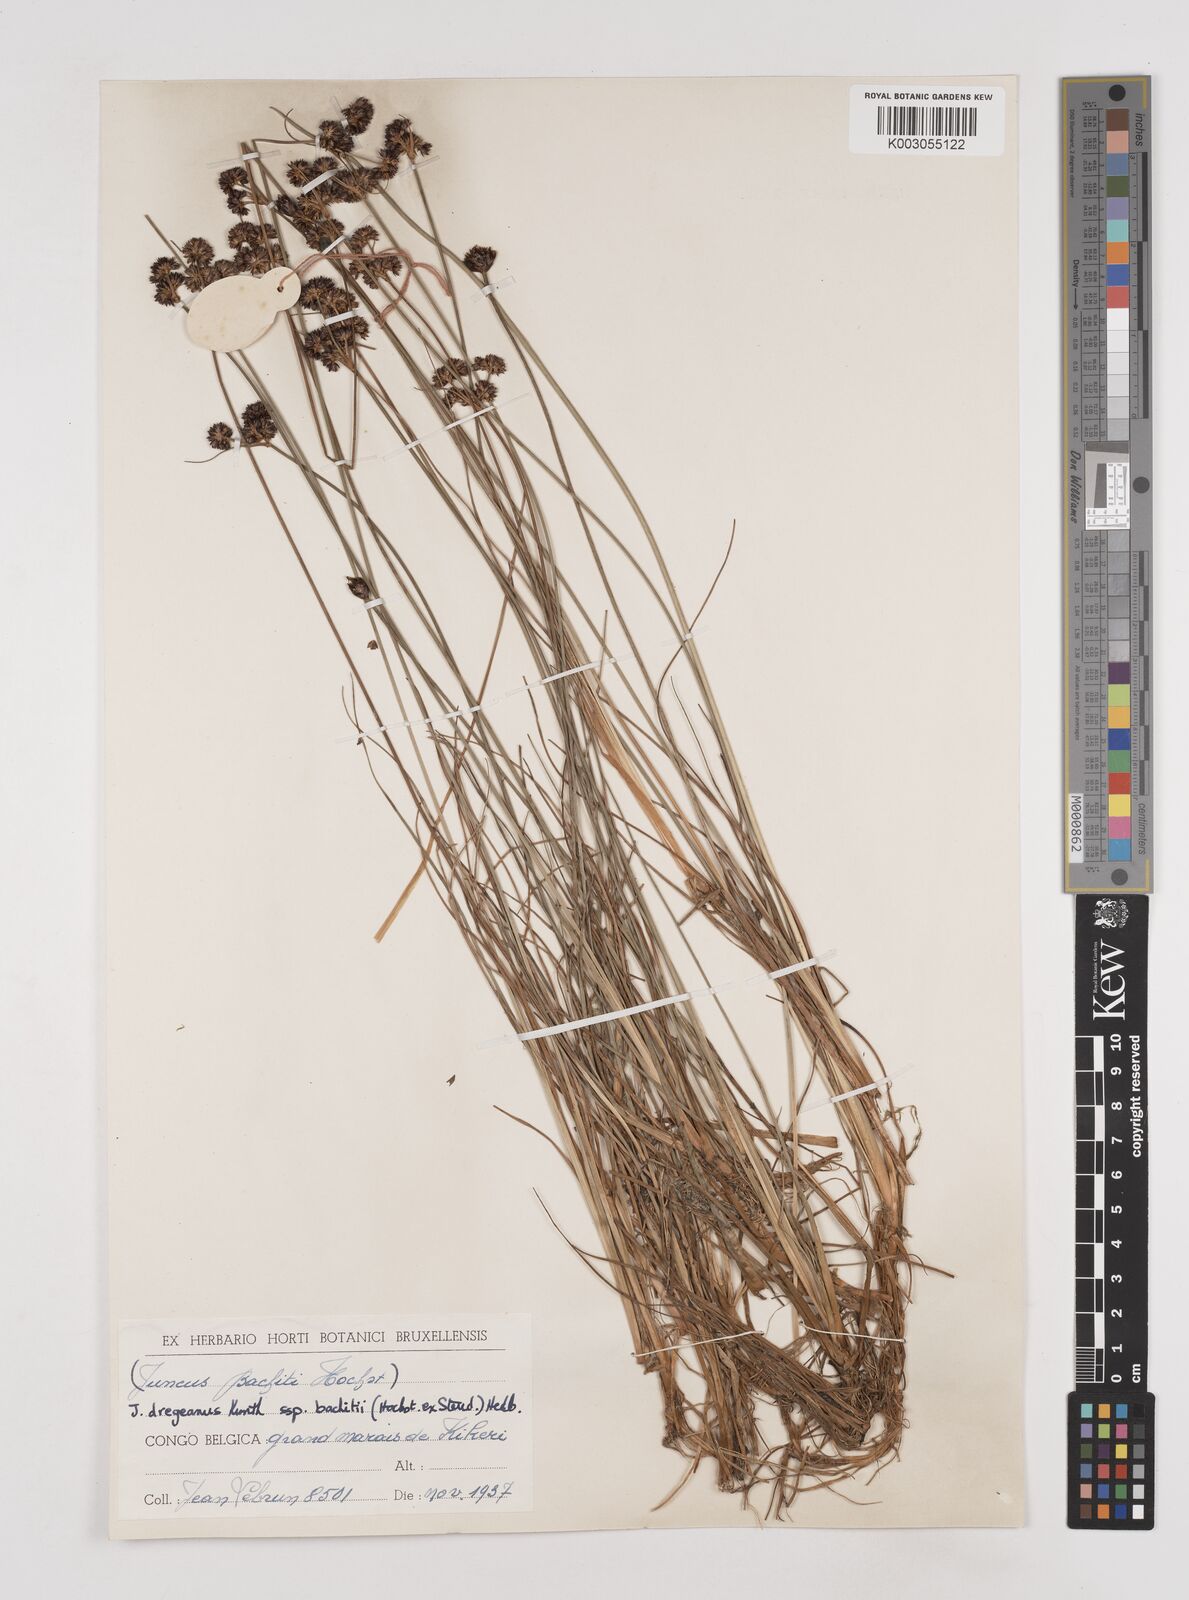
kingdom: Plantae
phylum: Tracheophyta
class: Liliopsida
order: Poales
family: Juncaceae
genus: Juncus
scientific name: Juncus dregeanus
